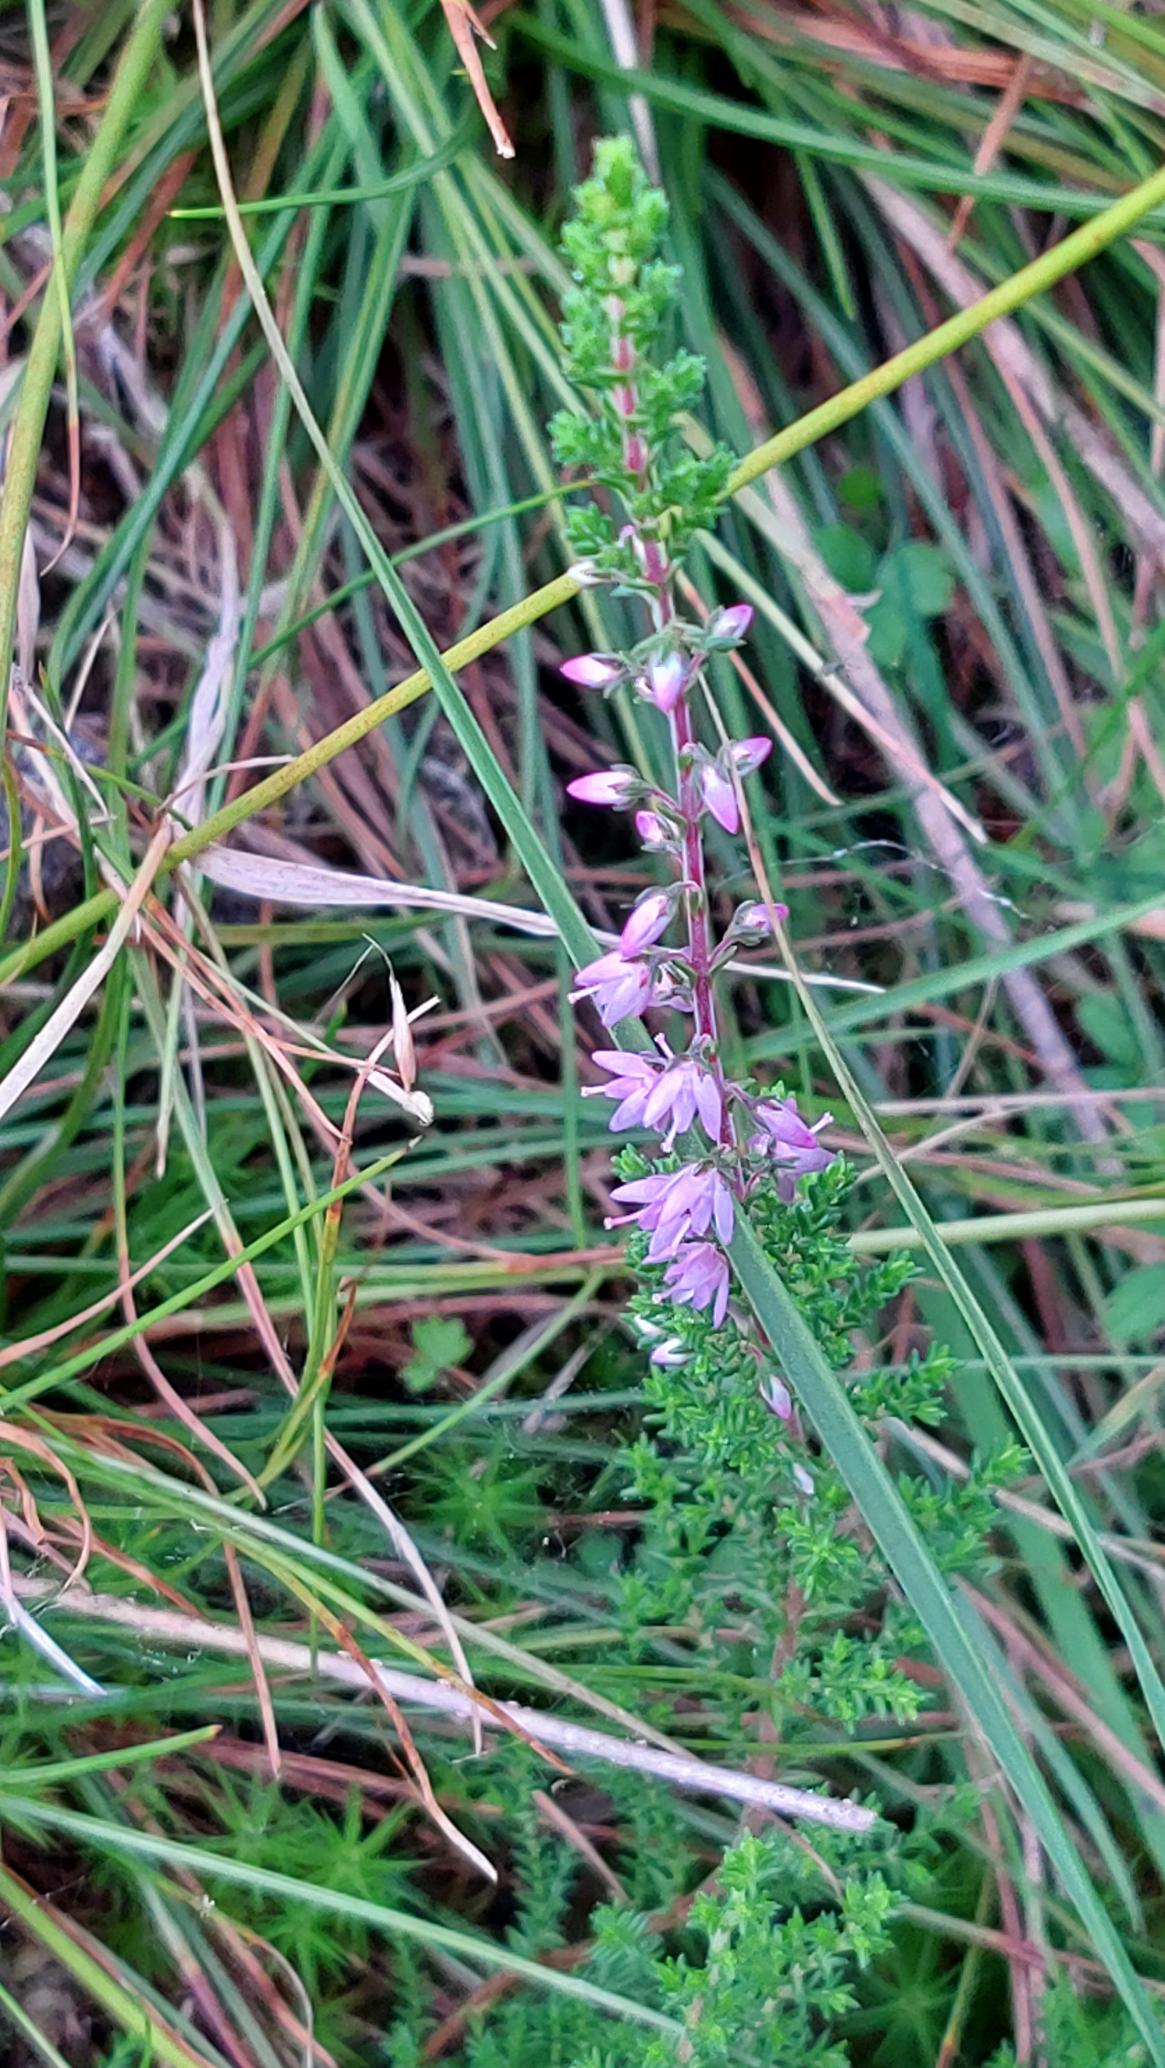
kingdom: Plantae
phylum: Tracheophyta
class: Magnoliopsida
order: Ericales
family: Ericaceae
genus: Calluna
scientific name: Calluna vulgaris
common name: Hedelyng
